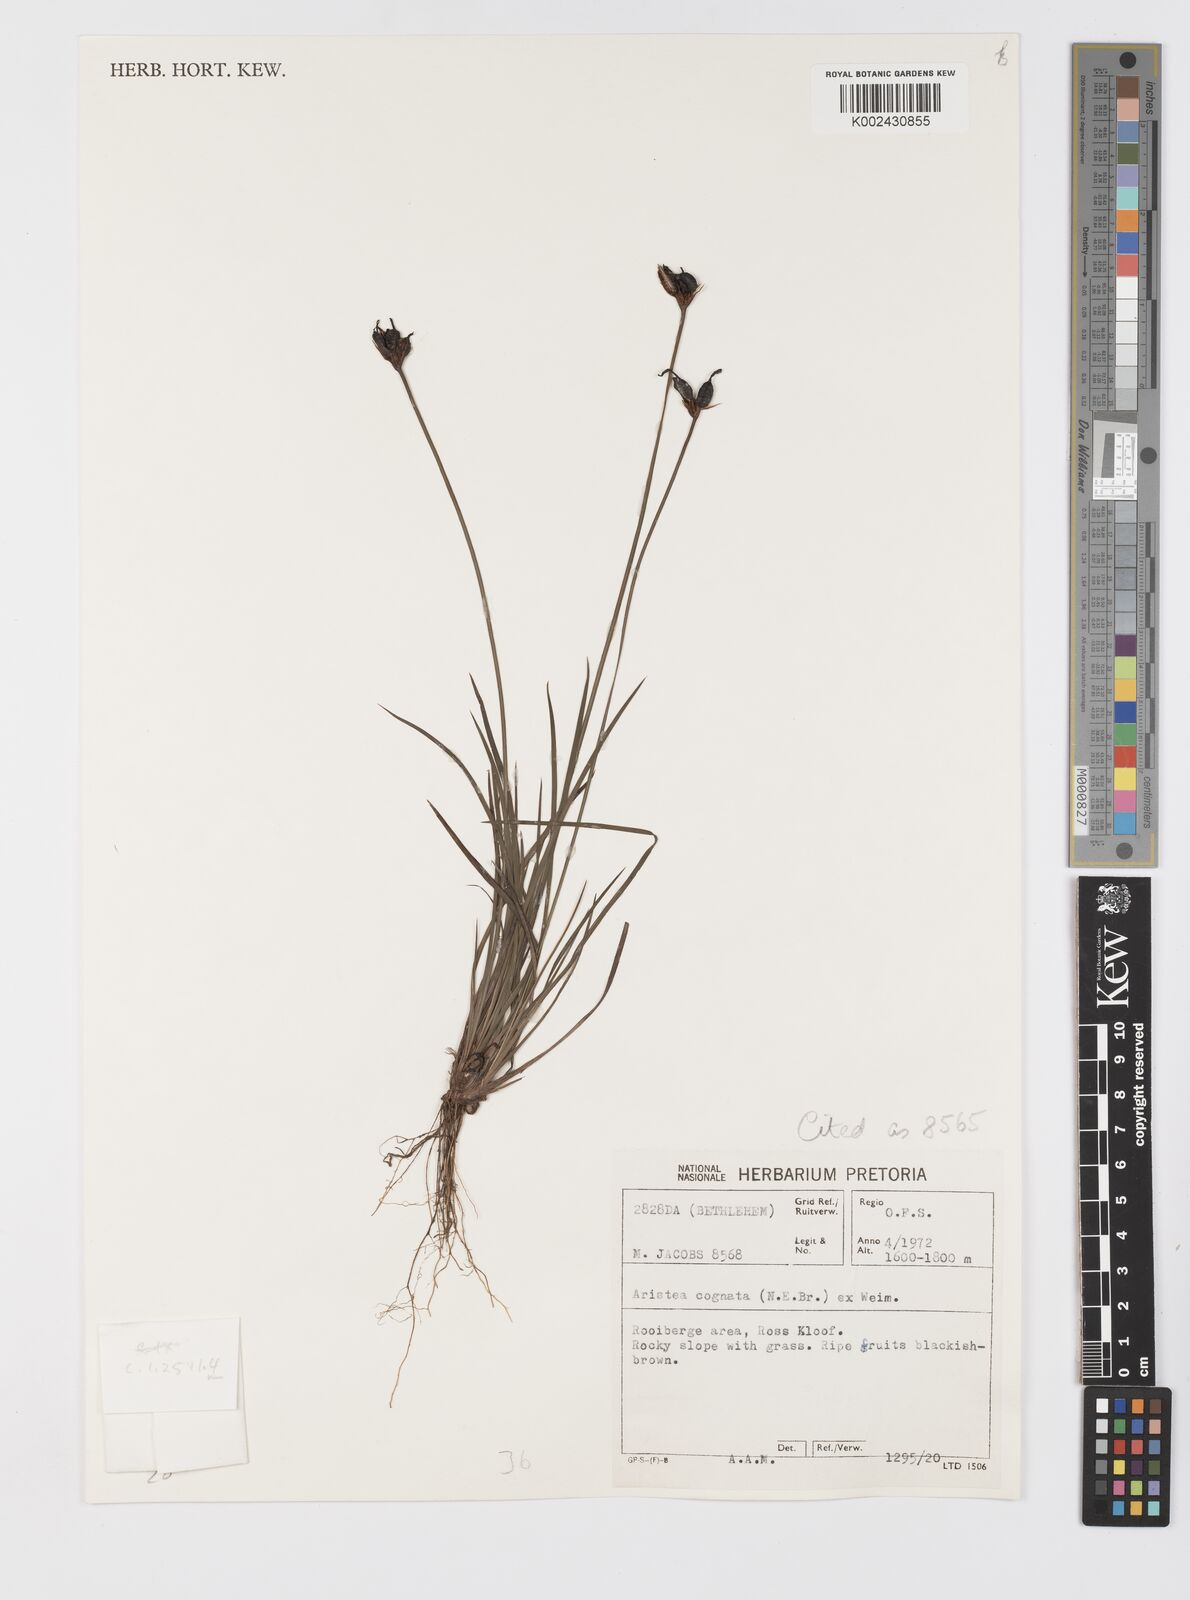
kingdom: Plantae
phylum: Tracheophyta
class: Liliopsida
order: Asparagales
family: Iridaceae
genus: Aristea
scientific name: Aristea abyssinica
